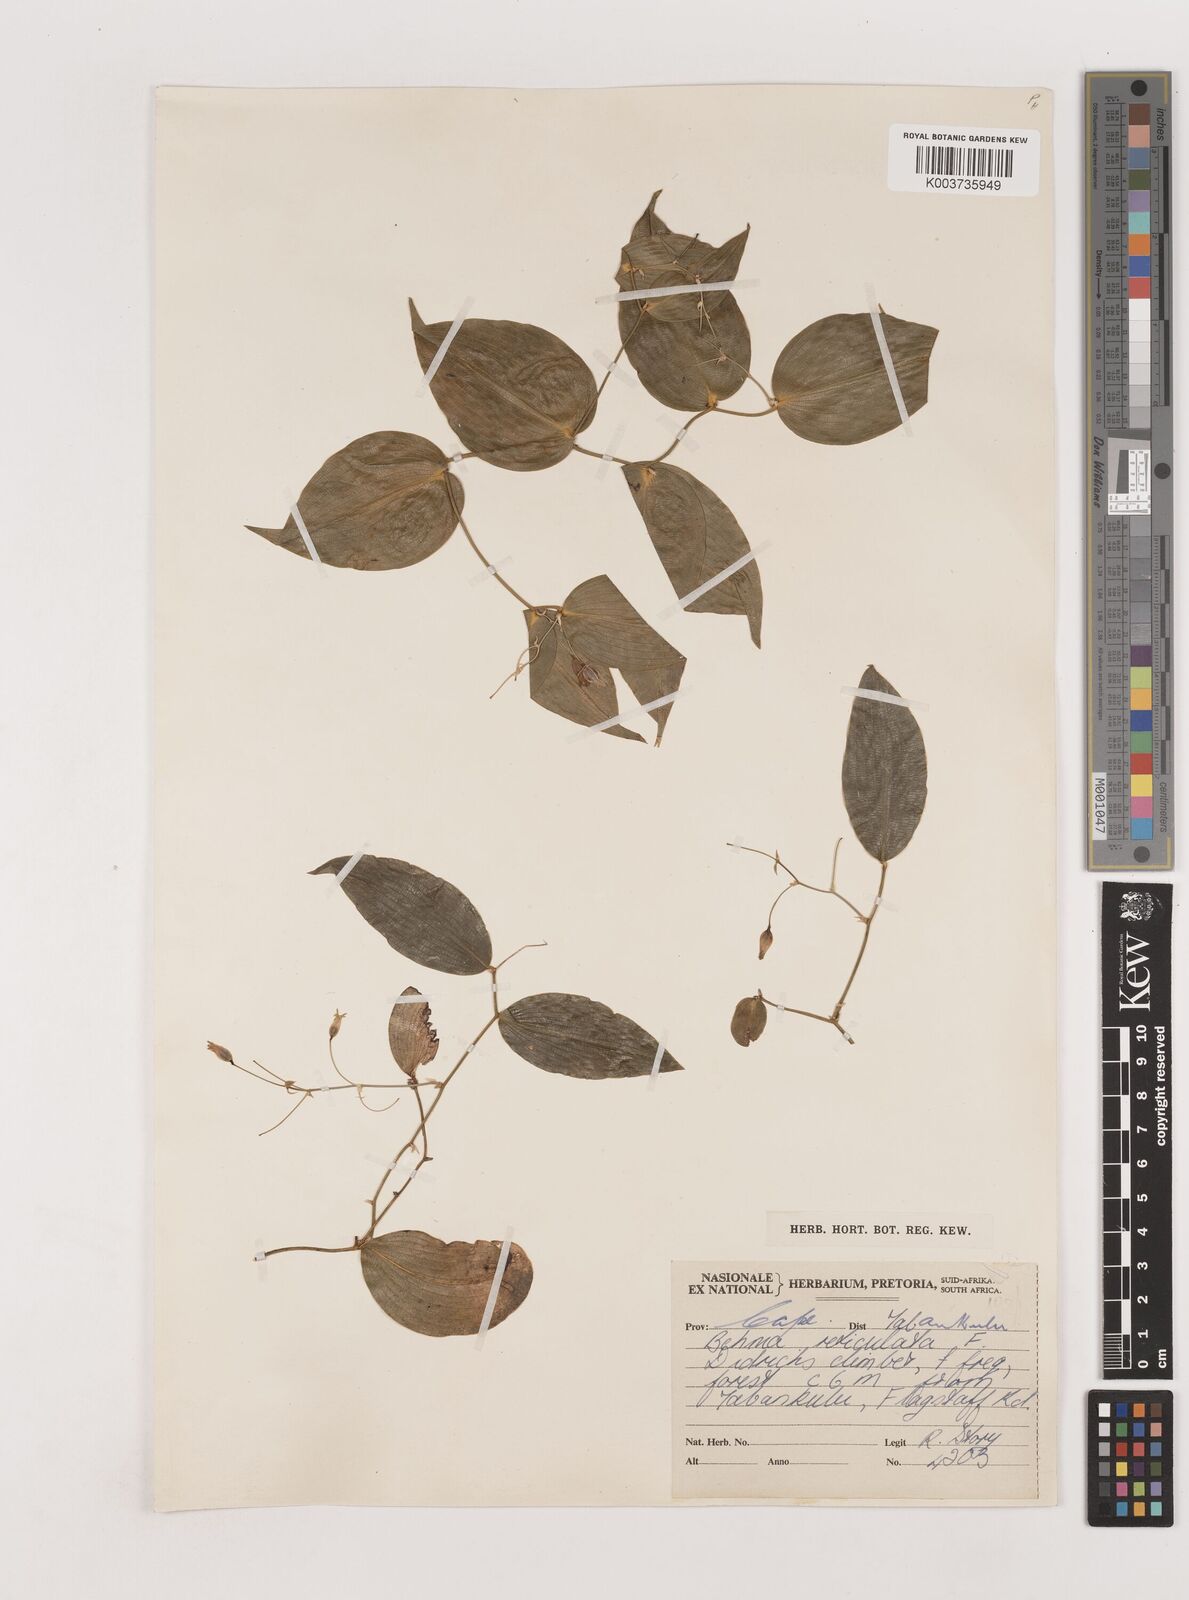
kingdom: Plantae
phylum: Tracheophyta
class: Liliopsida
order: Asparagales
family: Asparagaceae
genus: Behnia
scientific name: Behnia reticulata
